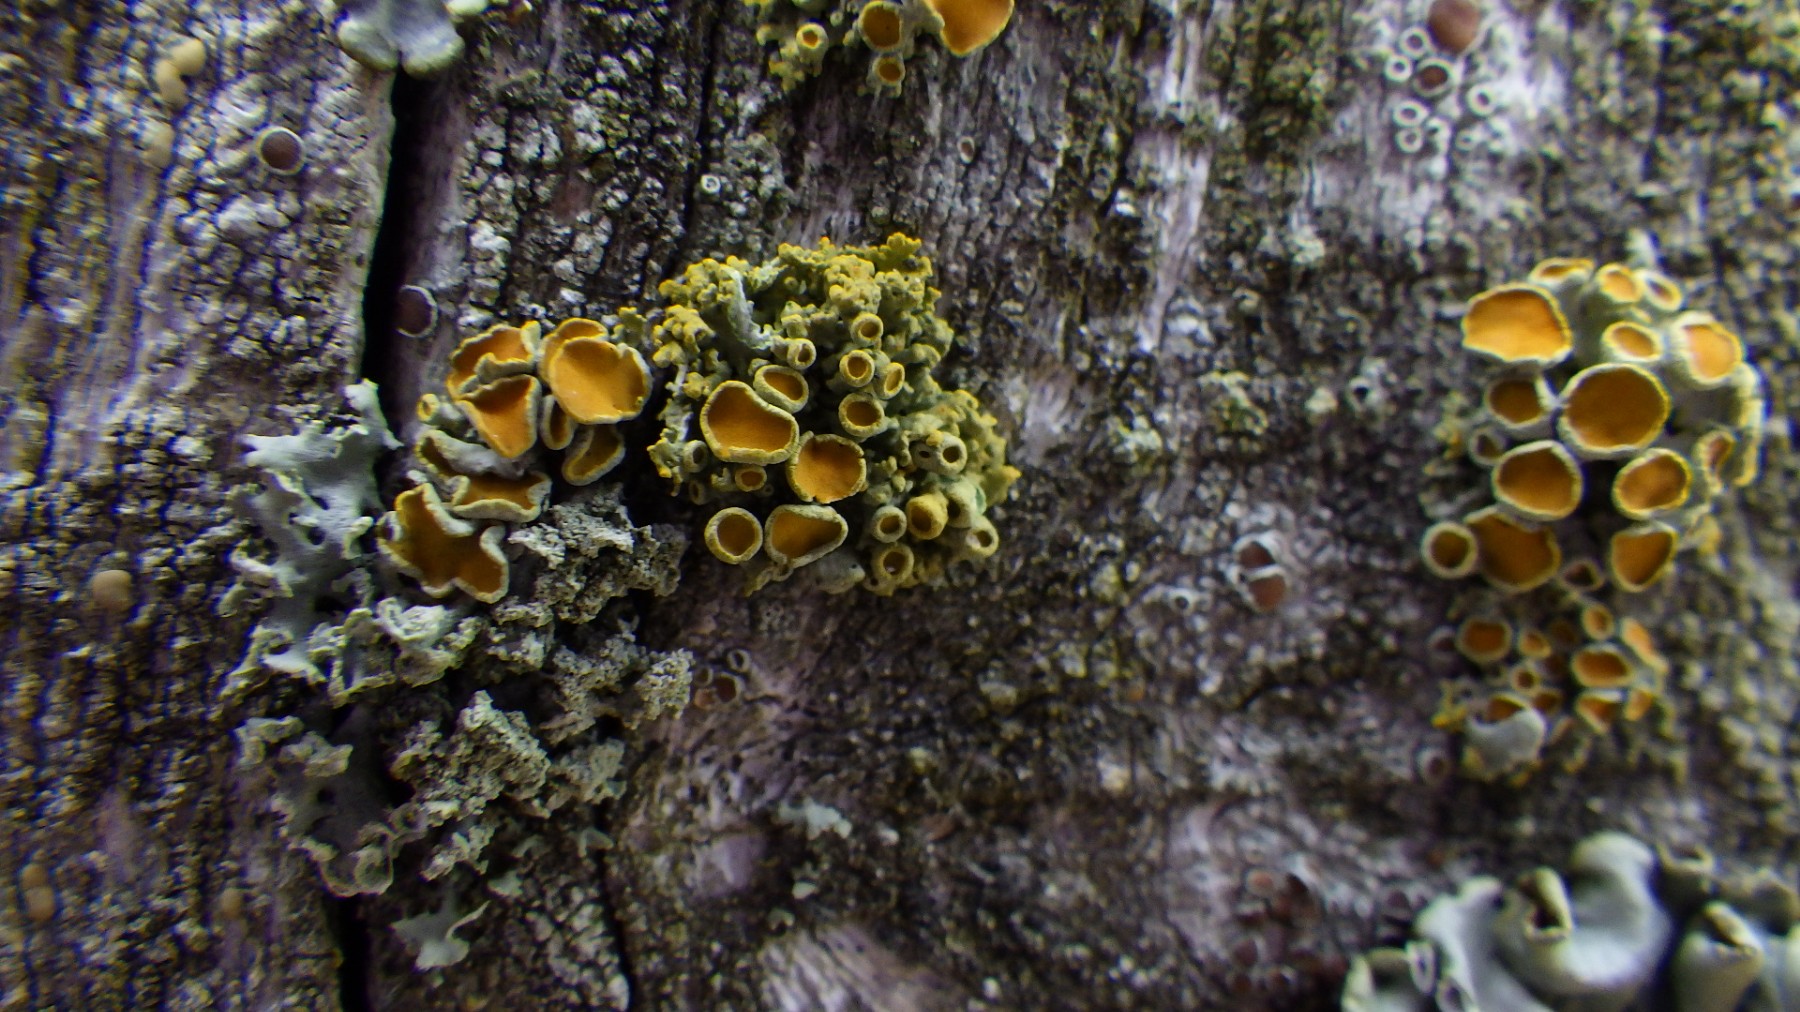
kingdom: Fungi
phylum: Ascomycota
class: Lecanoromycetes
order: Teloschistales
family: Teloschistaceae
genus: Polycauliona
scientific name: Polycauliona polycarpa
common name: mangefrugtet orangelav
